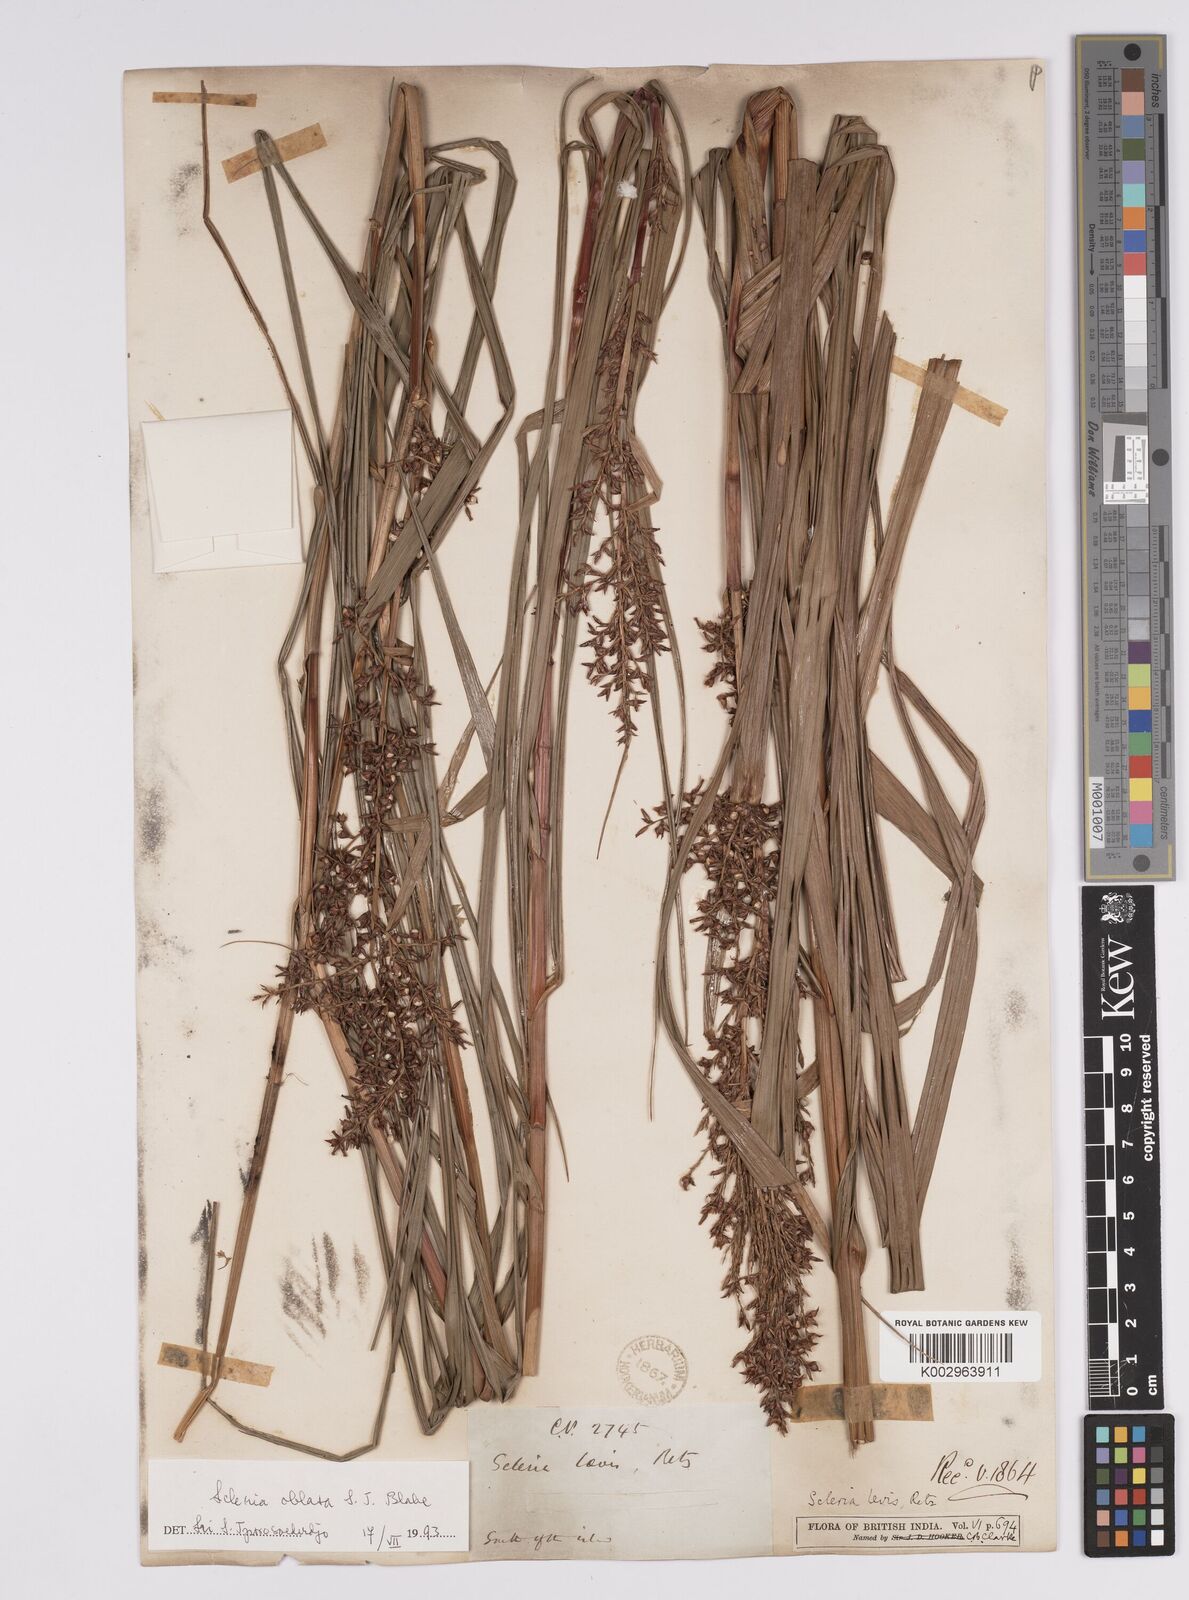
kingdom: Plantae
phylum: Tracheophyta
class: Liliopsida
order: Poales
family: Cyperaceae
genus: Scleria
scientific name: Scleria levis
